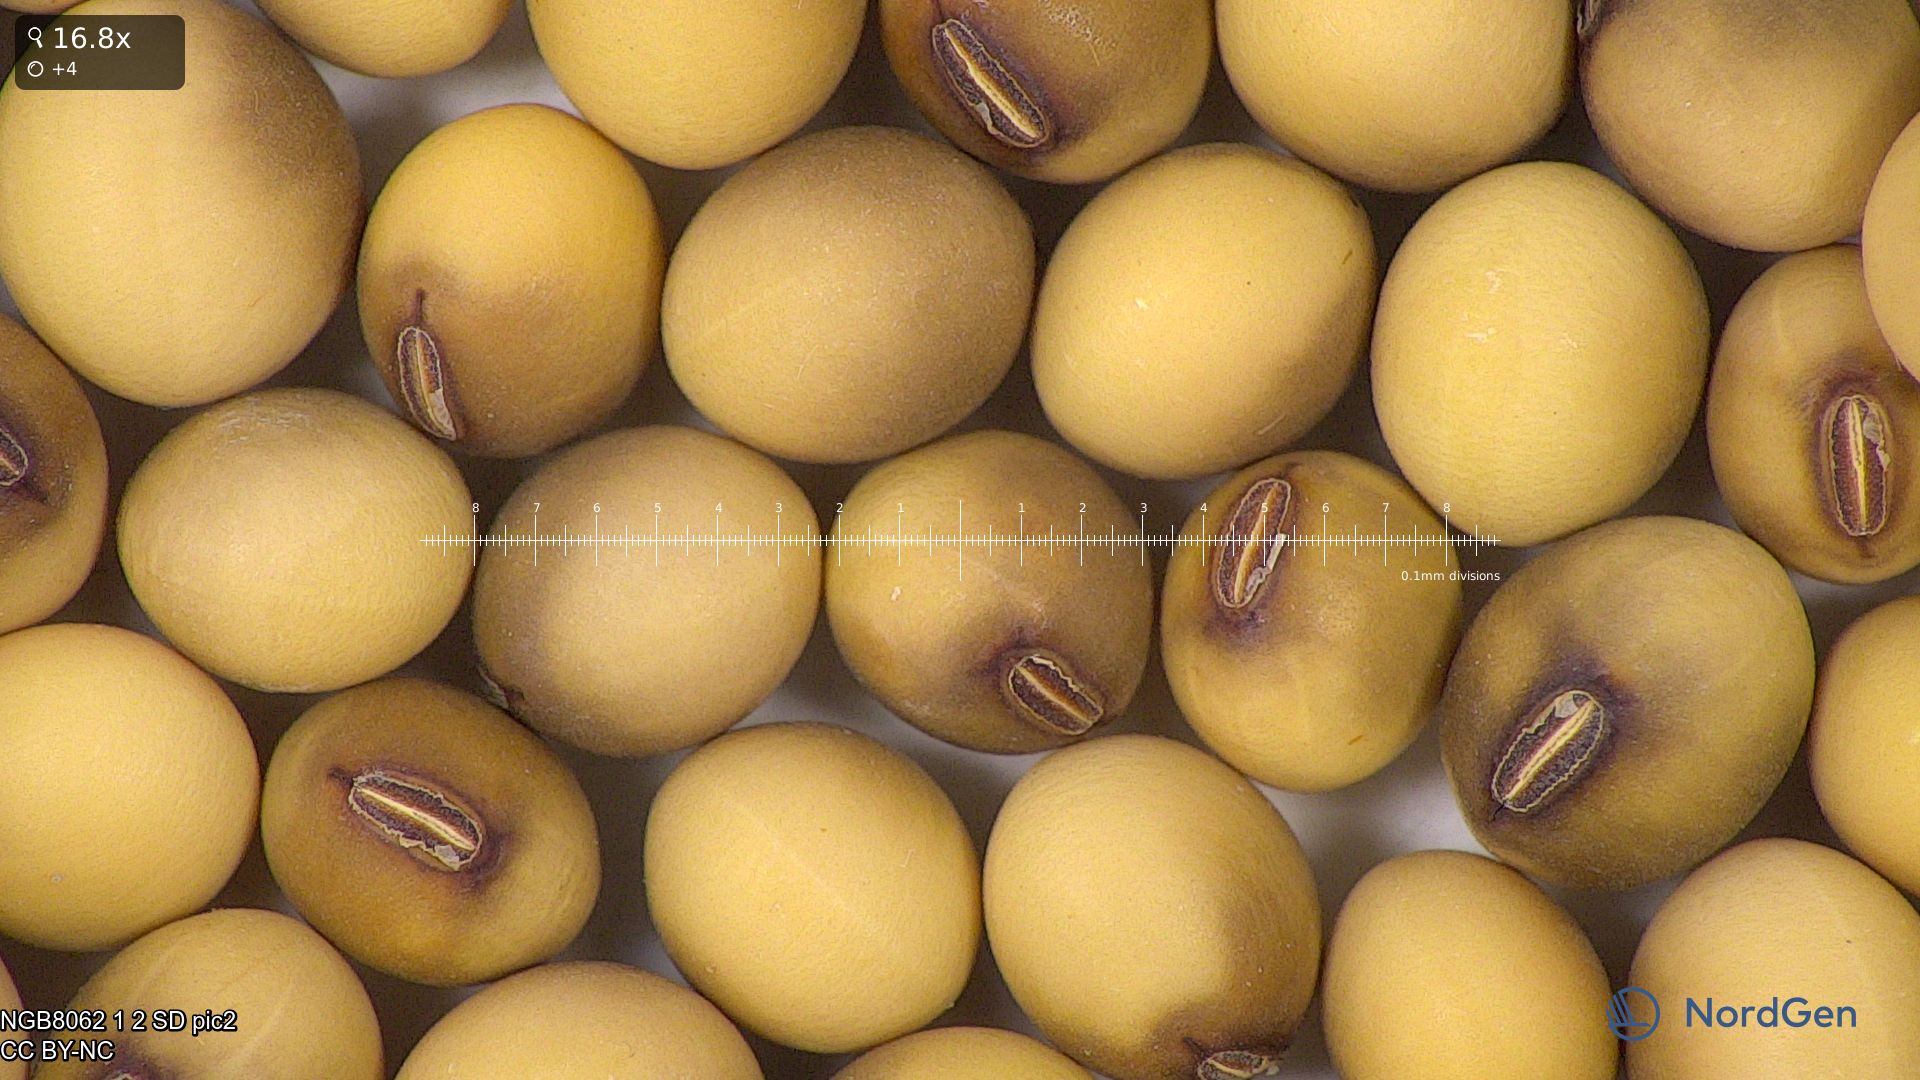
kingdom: Plantae
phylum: Tracheophyta
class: Magnoliopsida
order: Fabales
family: Fabaceae
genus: Glycine
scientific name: Glycine max
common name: Soya-bean
